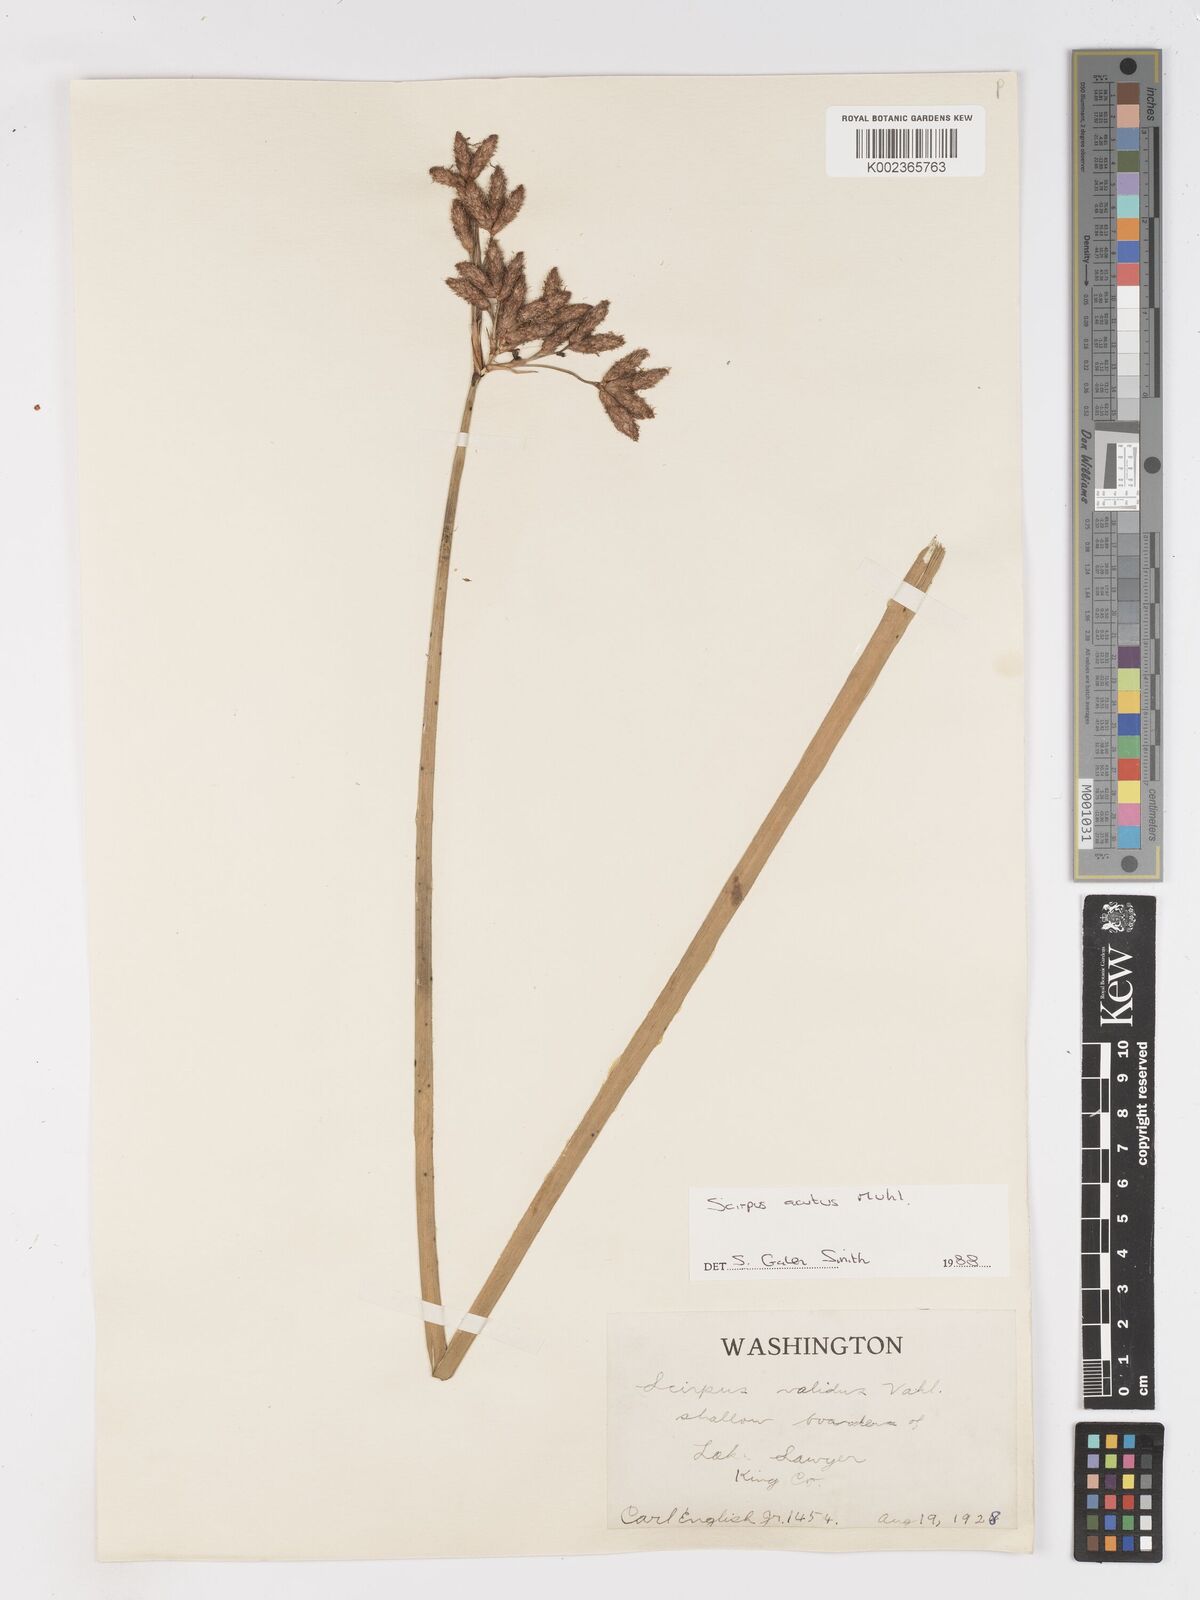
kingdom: Plantae
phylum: Tracheophyta
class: Liliopsida
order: Poales
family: Cyperaceae
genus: Schoenoplectus
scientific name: Schoenoplectus tabernaemontani
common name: Grey club-rush
